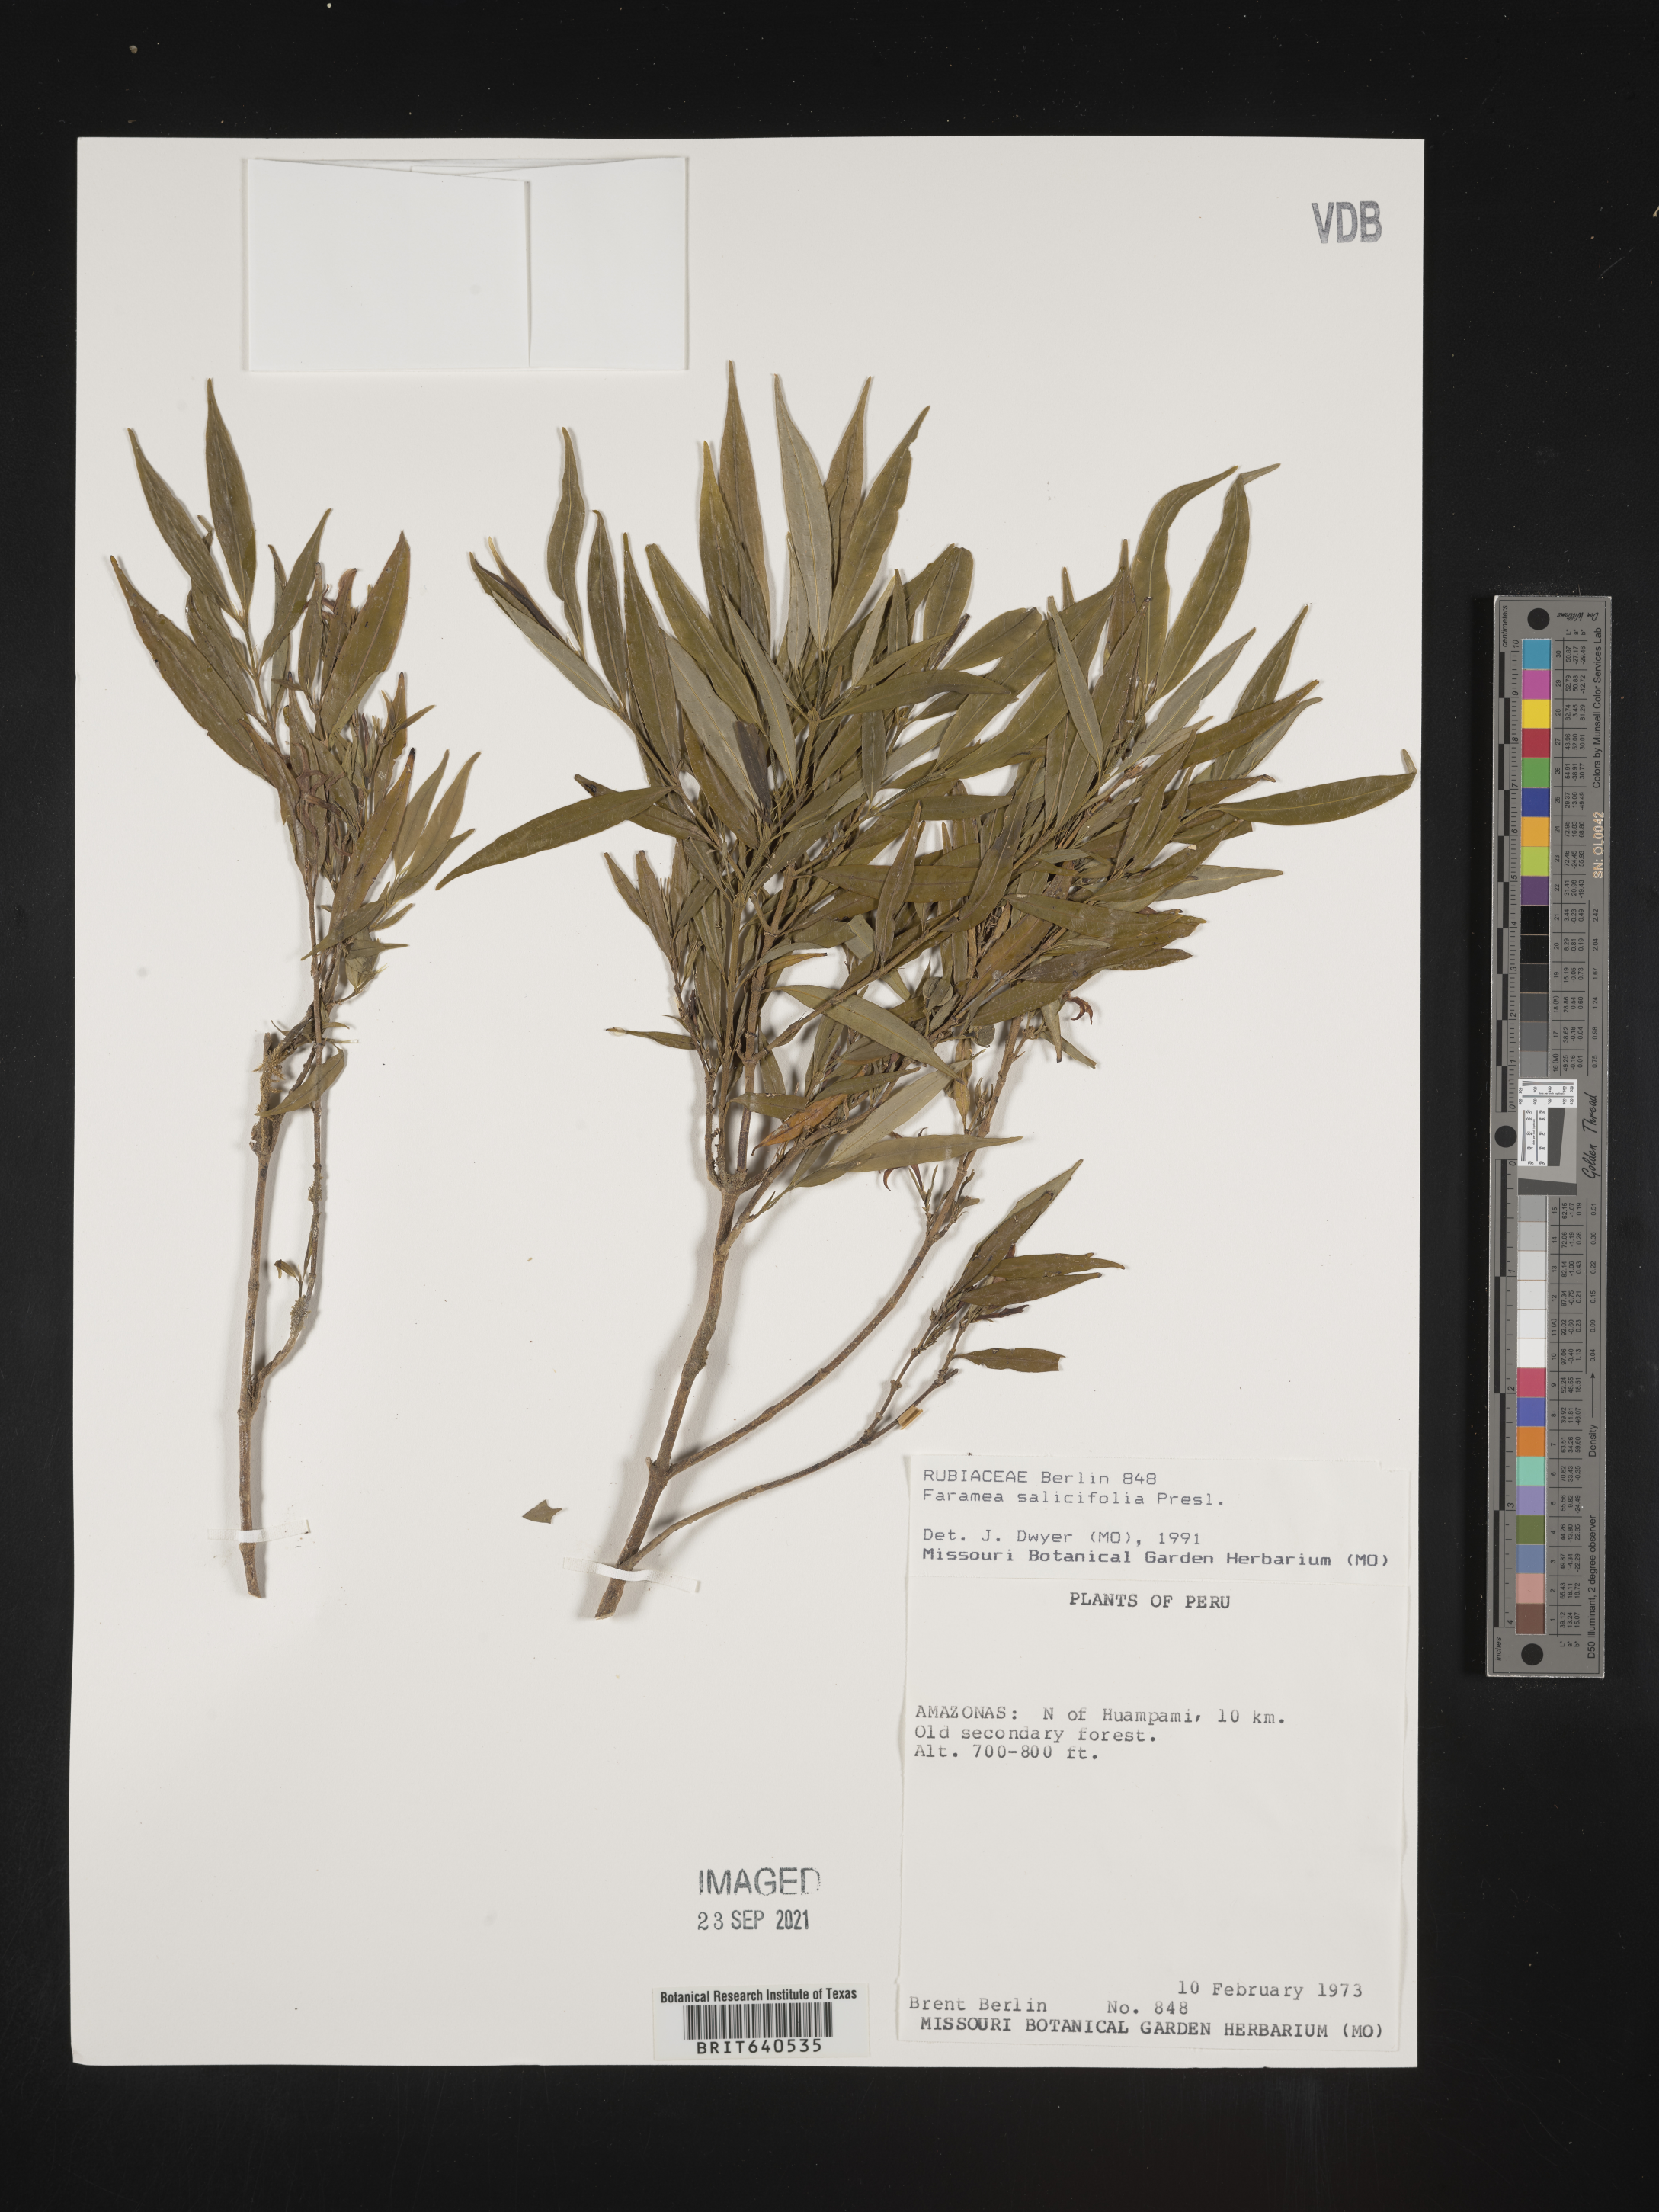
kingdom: Plantae
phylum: Tracheophyta
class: Magnoliopsida
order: Gentianales
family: Rubiaceae
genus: Faramea
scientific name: Faramea
